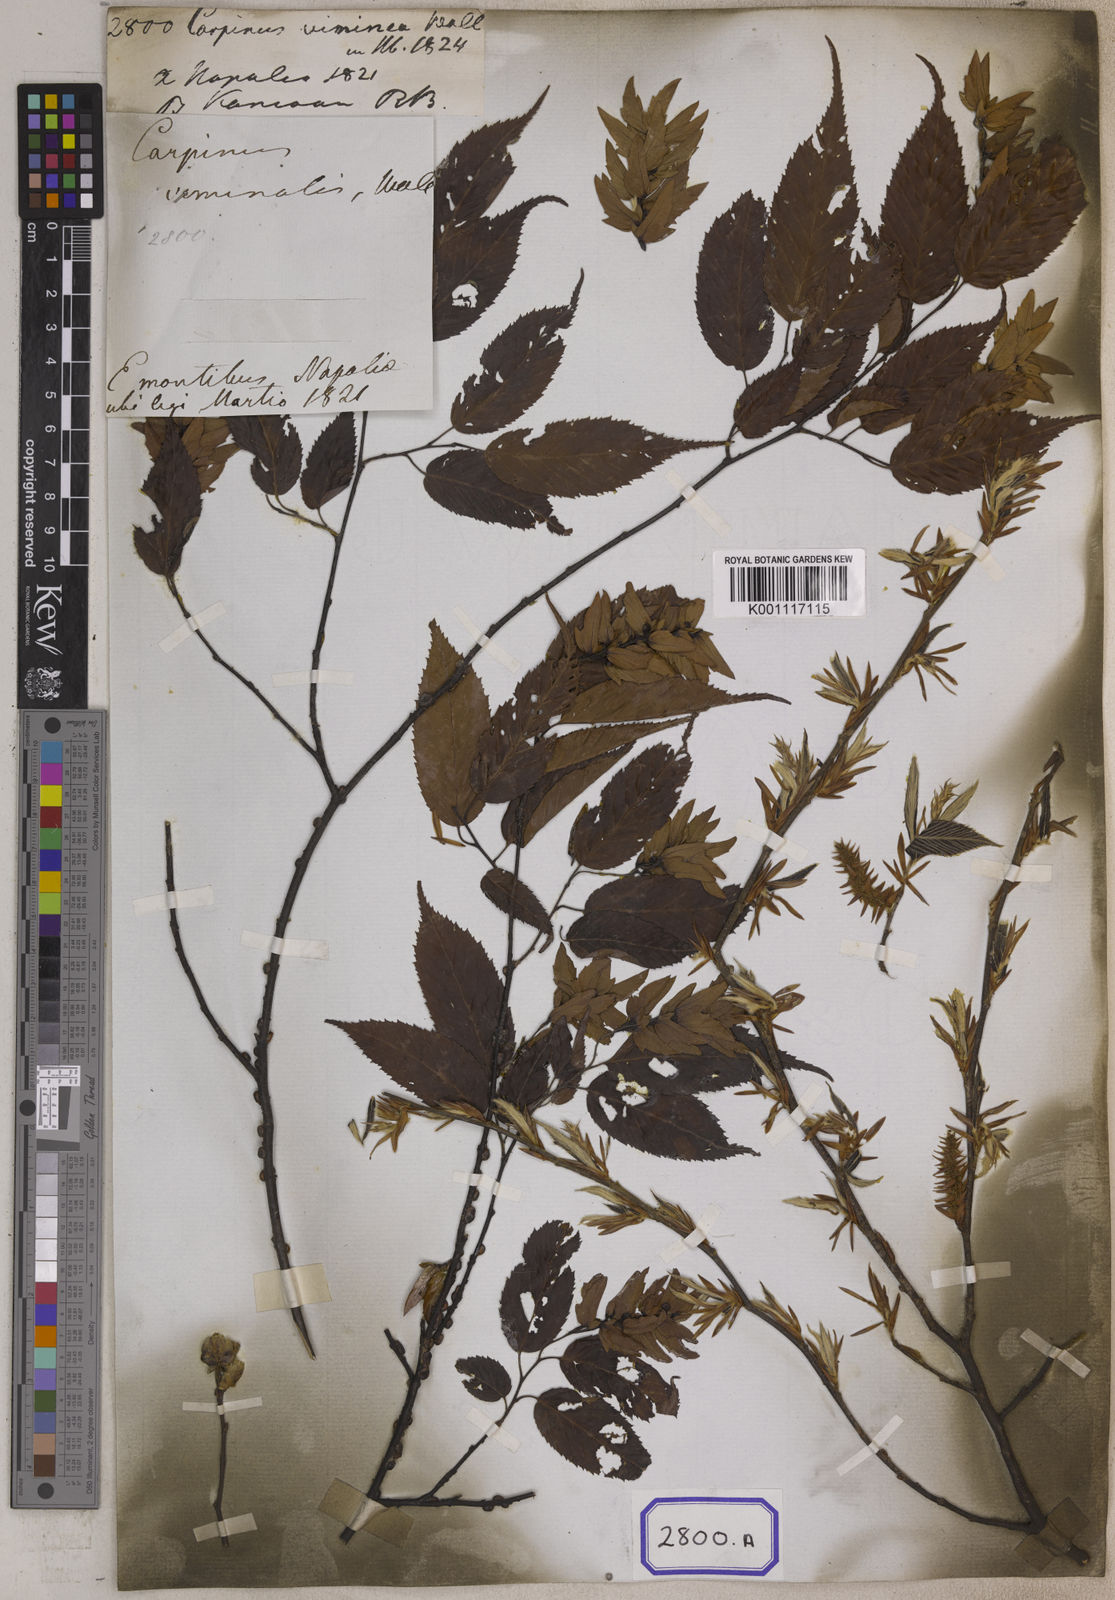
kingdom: Plantae
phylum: Tracheophyta
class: Magnoliopsida
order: Fagales
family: Betulaceae
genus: Carpinus
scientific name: Carpinus
